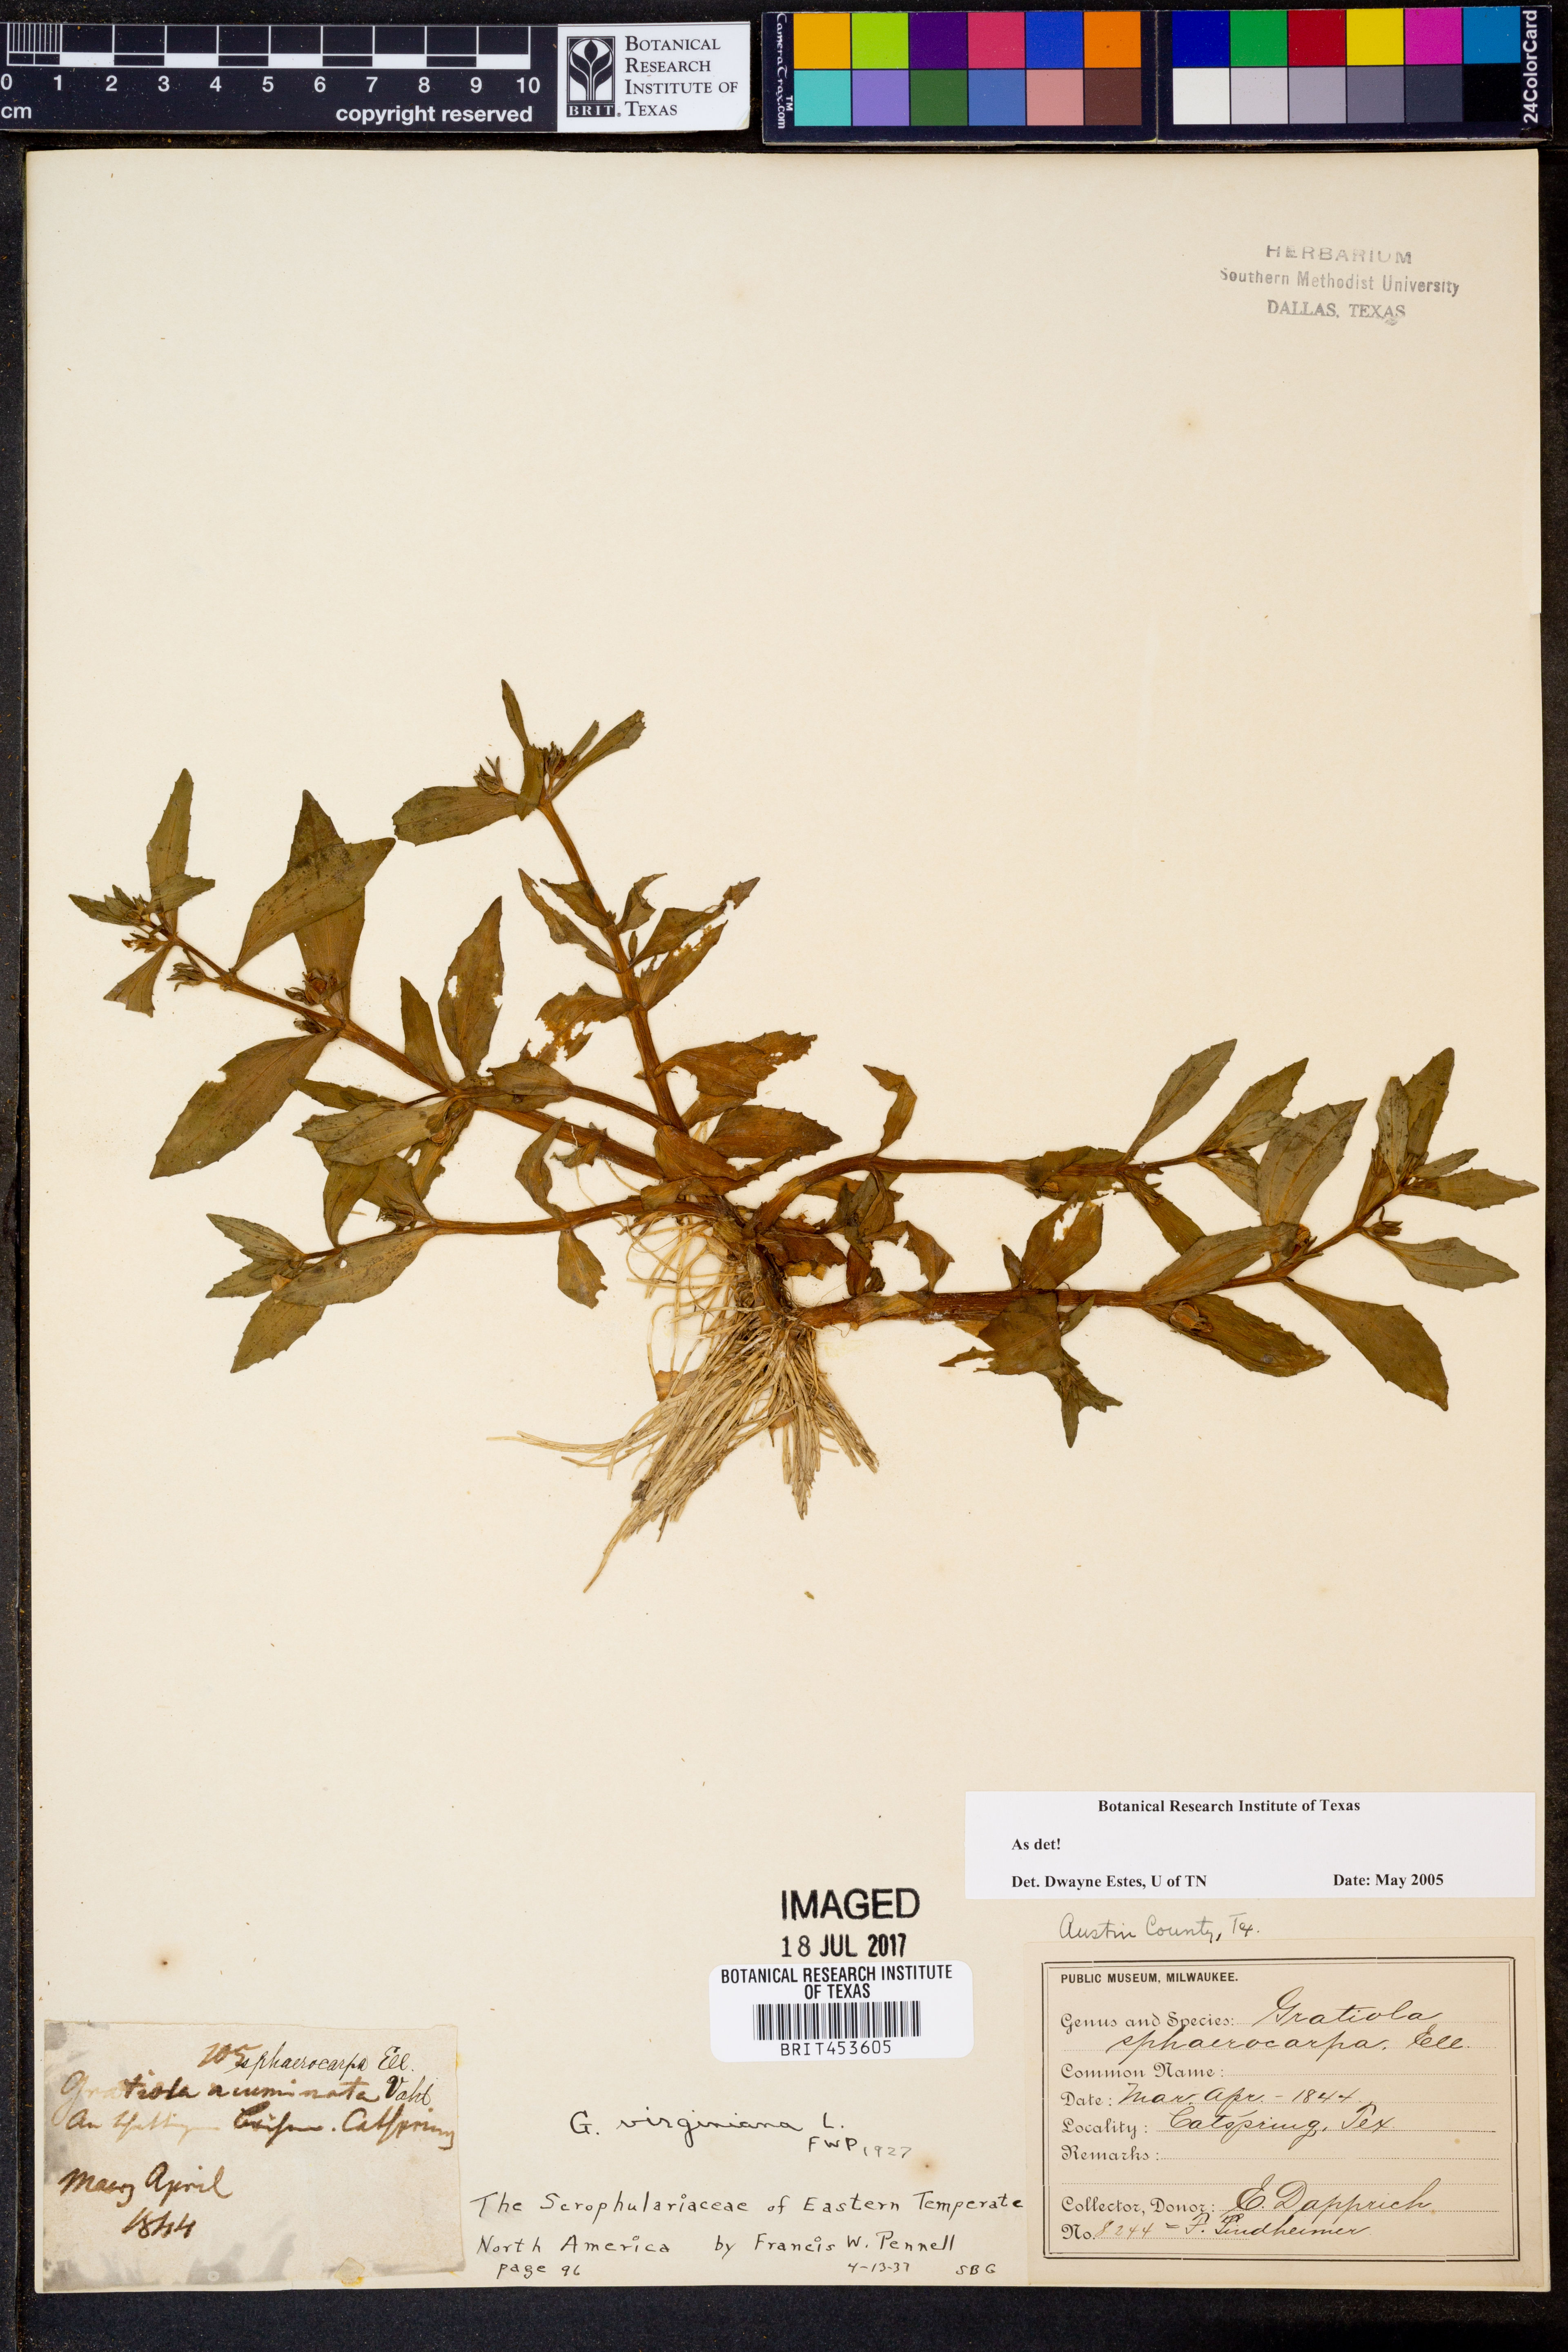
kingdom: Plantae
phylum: Tracheophyta
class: Magnoliopsida
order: Lamiales
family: Plantaginaceae
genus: Gratiola
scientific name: Gratiola virginiana
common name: Roundfruit hedgehyssop
